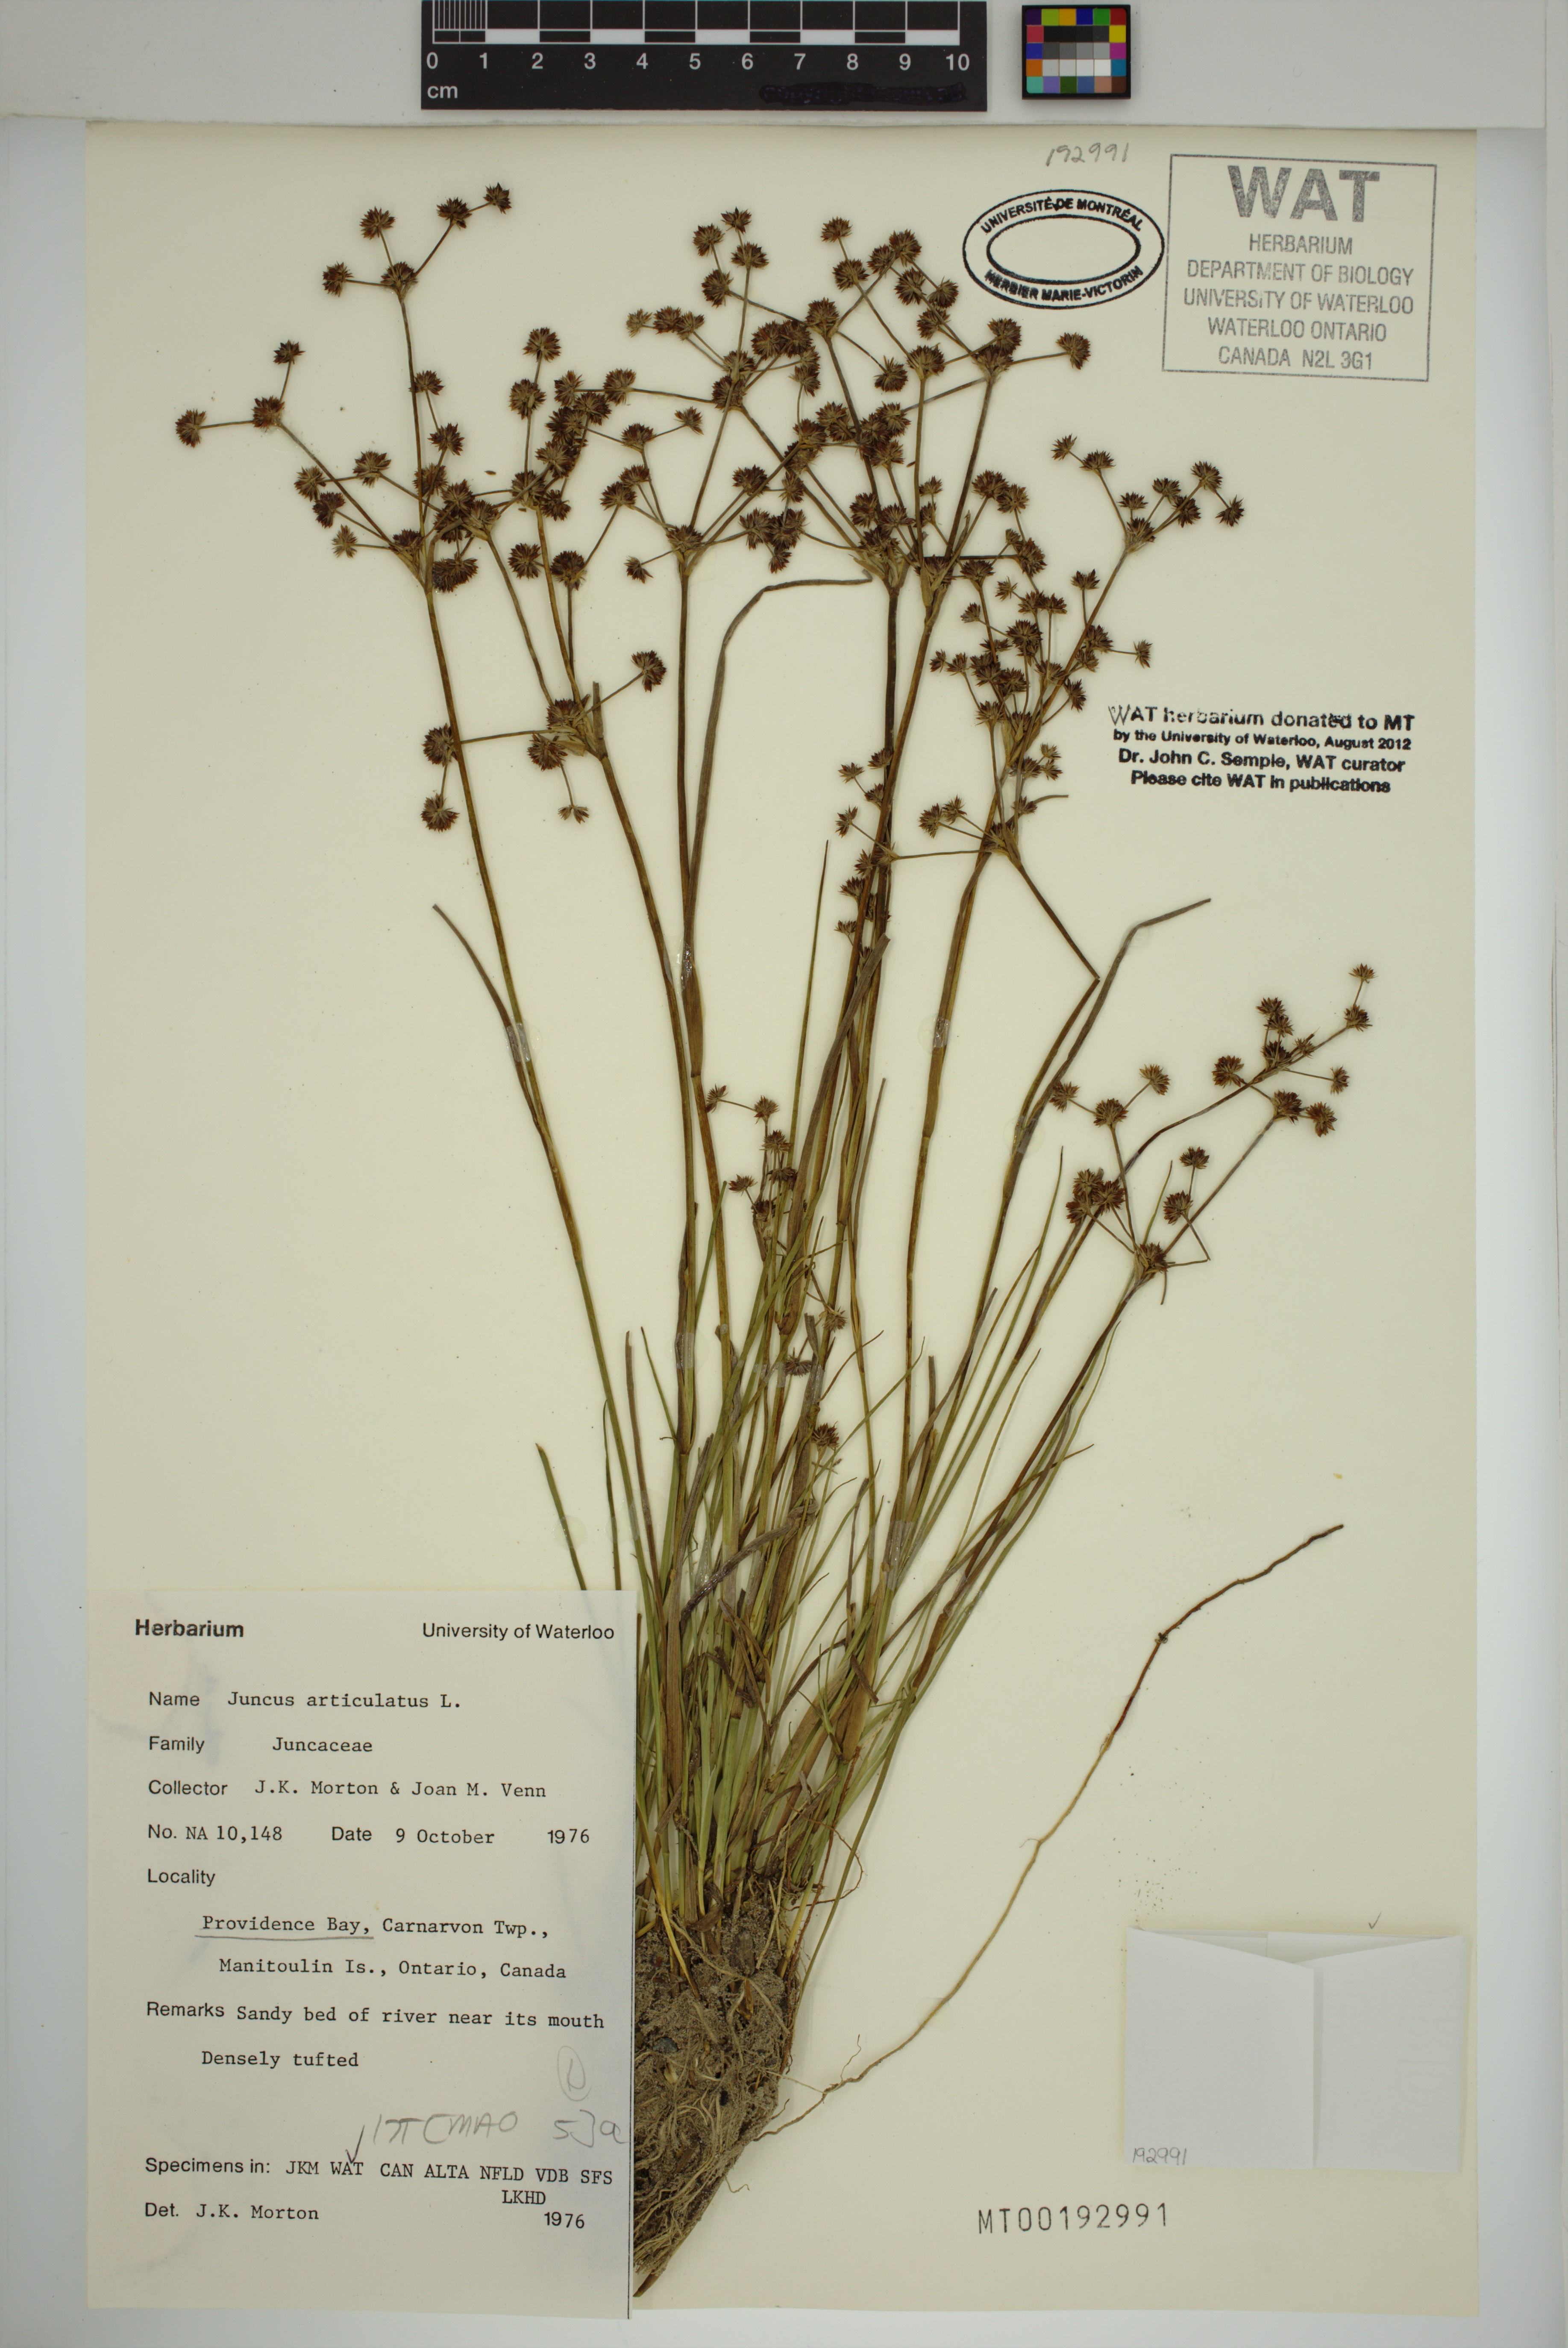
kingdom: Plantae
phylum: Tracheophyta
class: Liliopsida
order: Poales
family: Juncaceae
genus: Juncus
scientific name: Juncus articulatus
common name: Jointed rush
